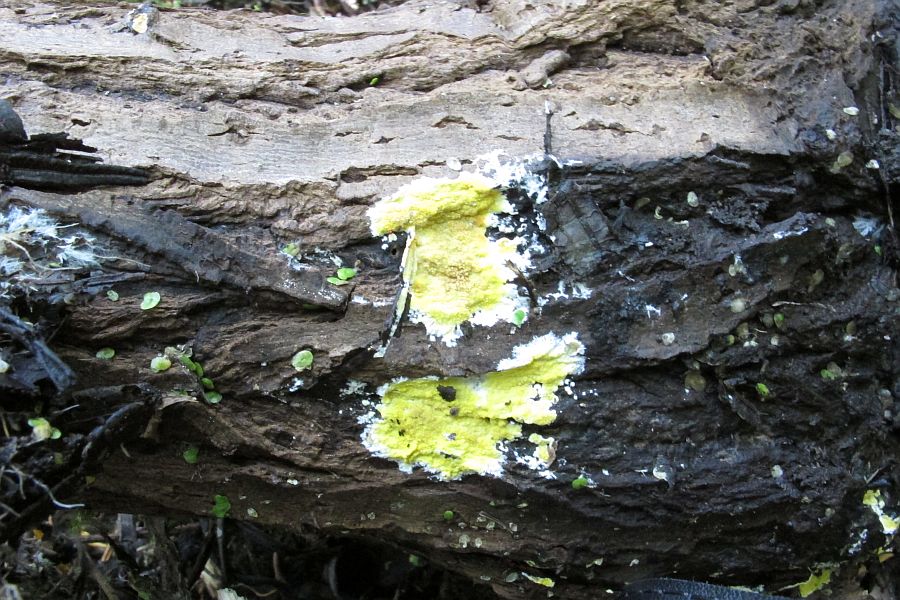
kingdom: Fungi
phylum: Basidiomycota
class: Agaricomycetes
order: Polyporales
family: Meruliaceae
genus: Phlebiodontia
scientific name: Phlebiodontia subochracea
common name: svovl-åresvamp
